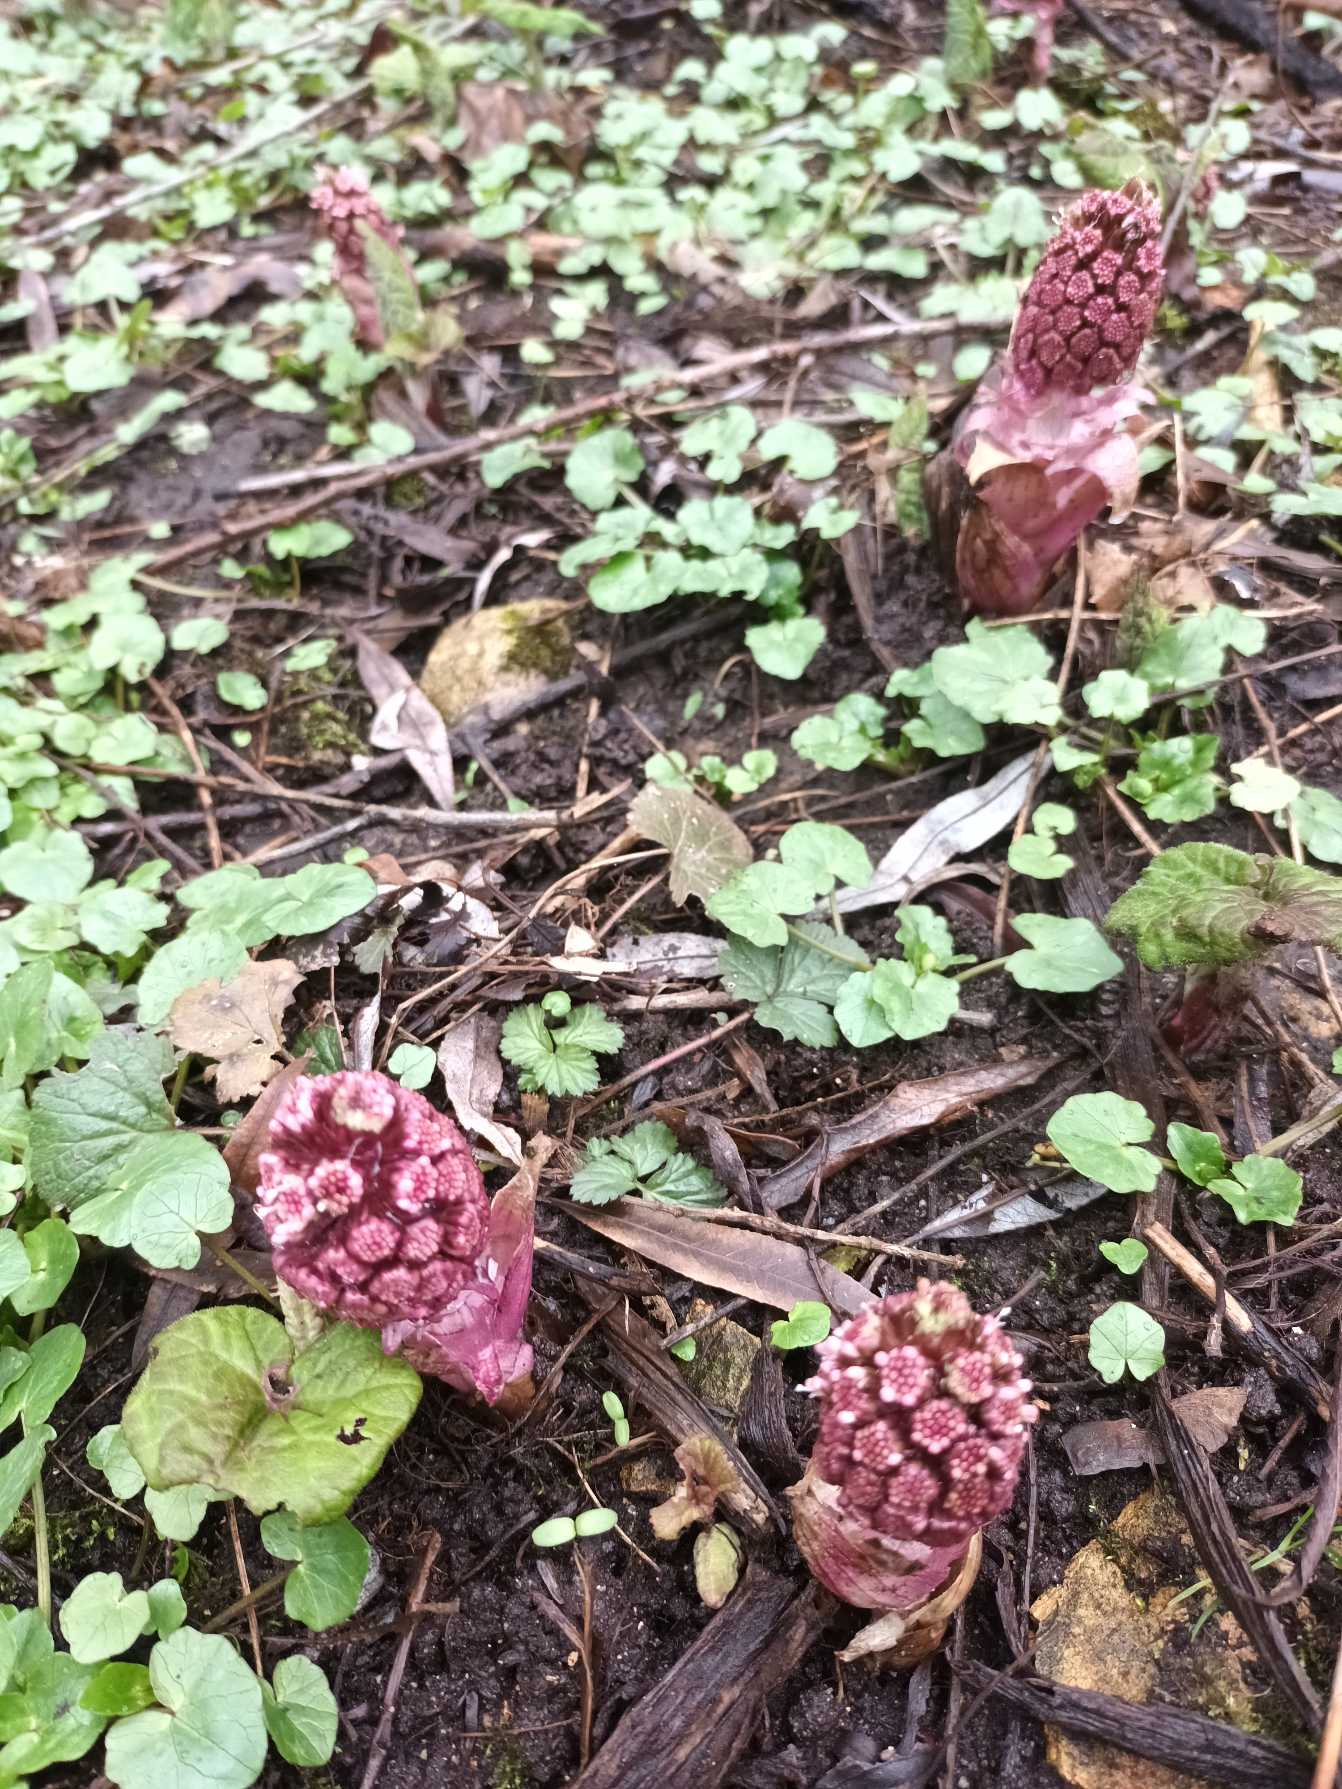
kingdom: Plantae
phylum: Tracheophyta
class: Magnoliopsida
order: Asterales
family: Asteraceae
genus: Petasites
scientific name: Petasites hybridus
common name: Rød hestehov
